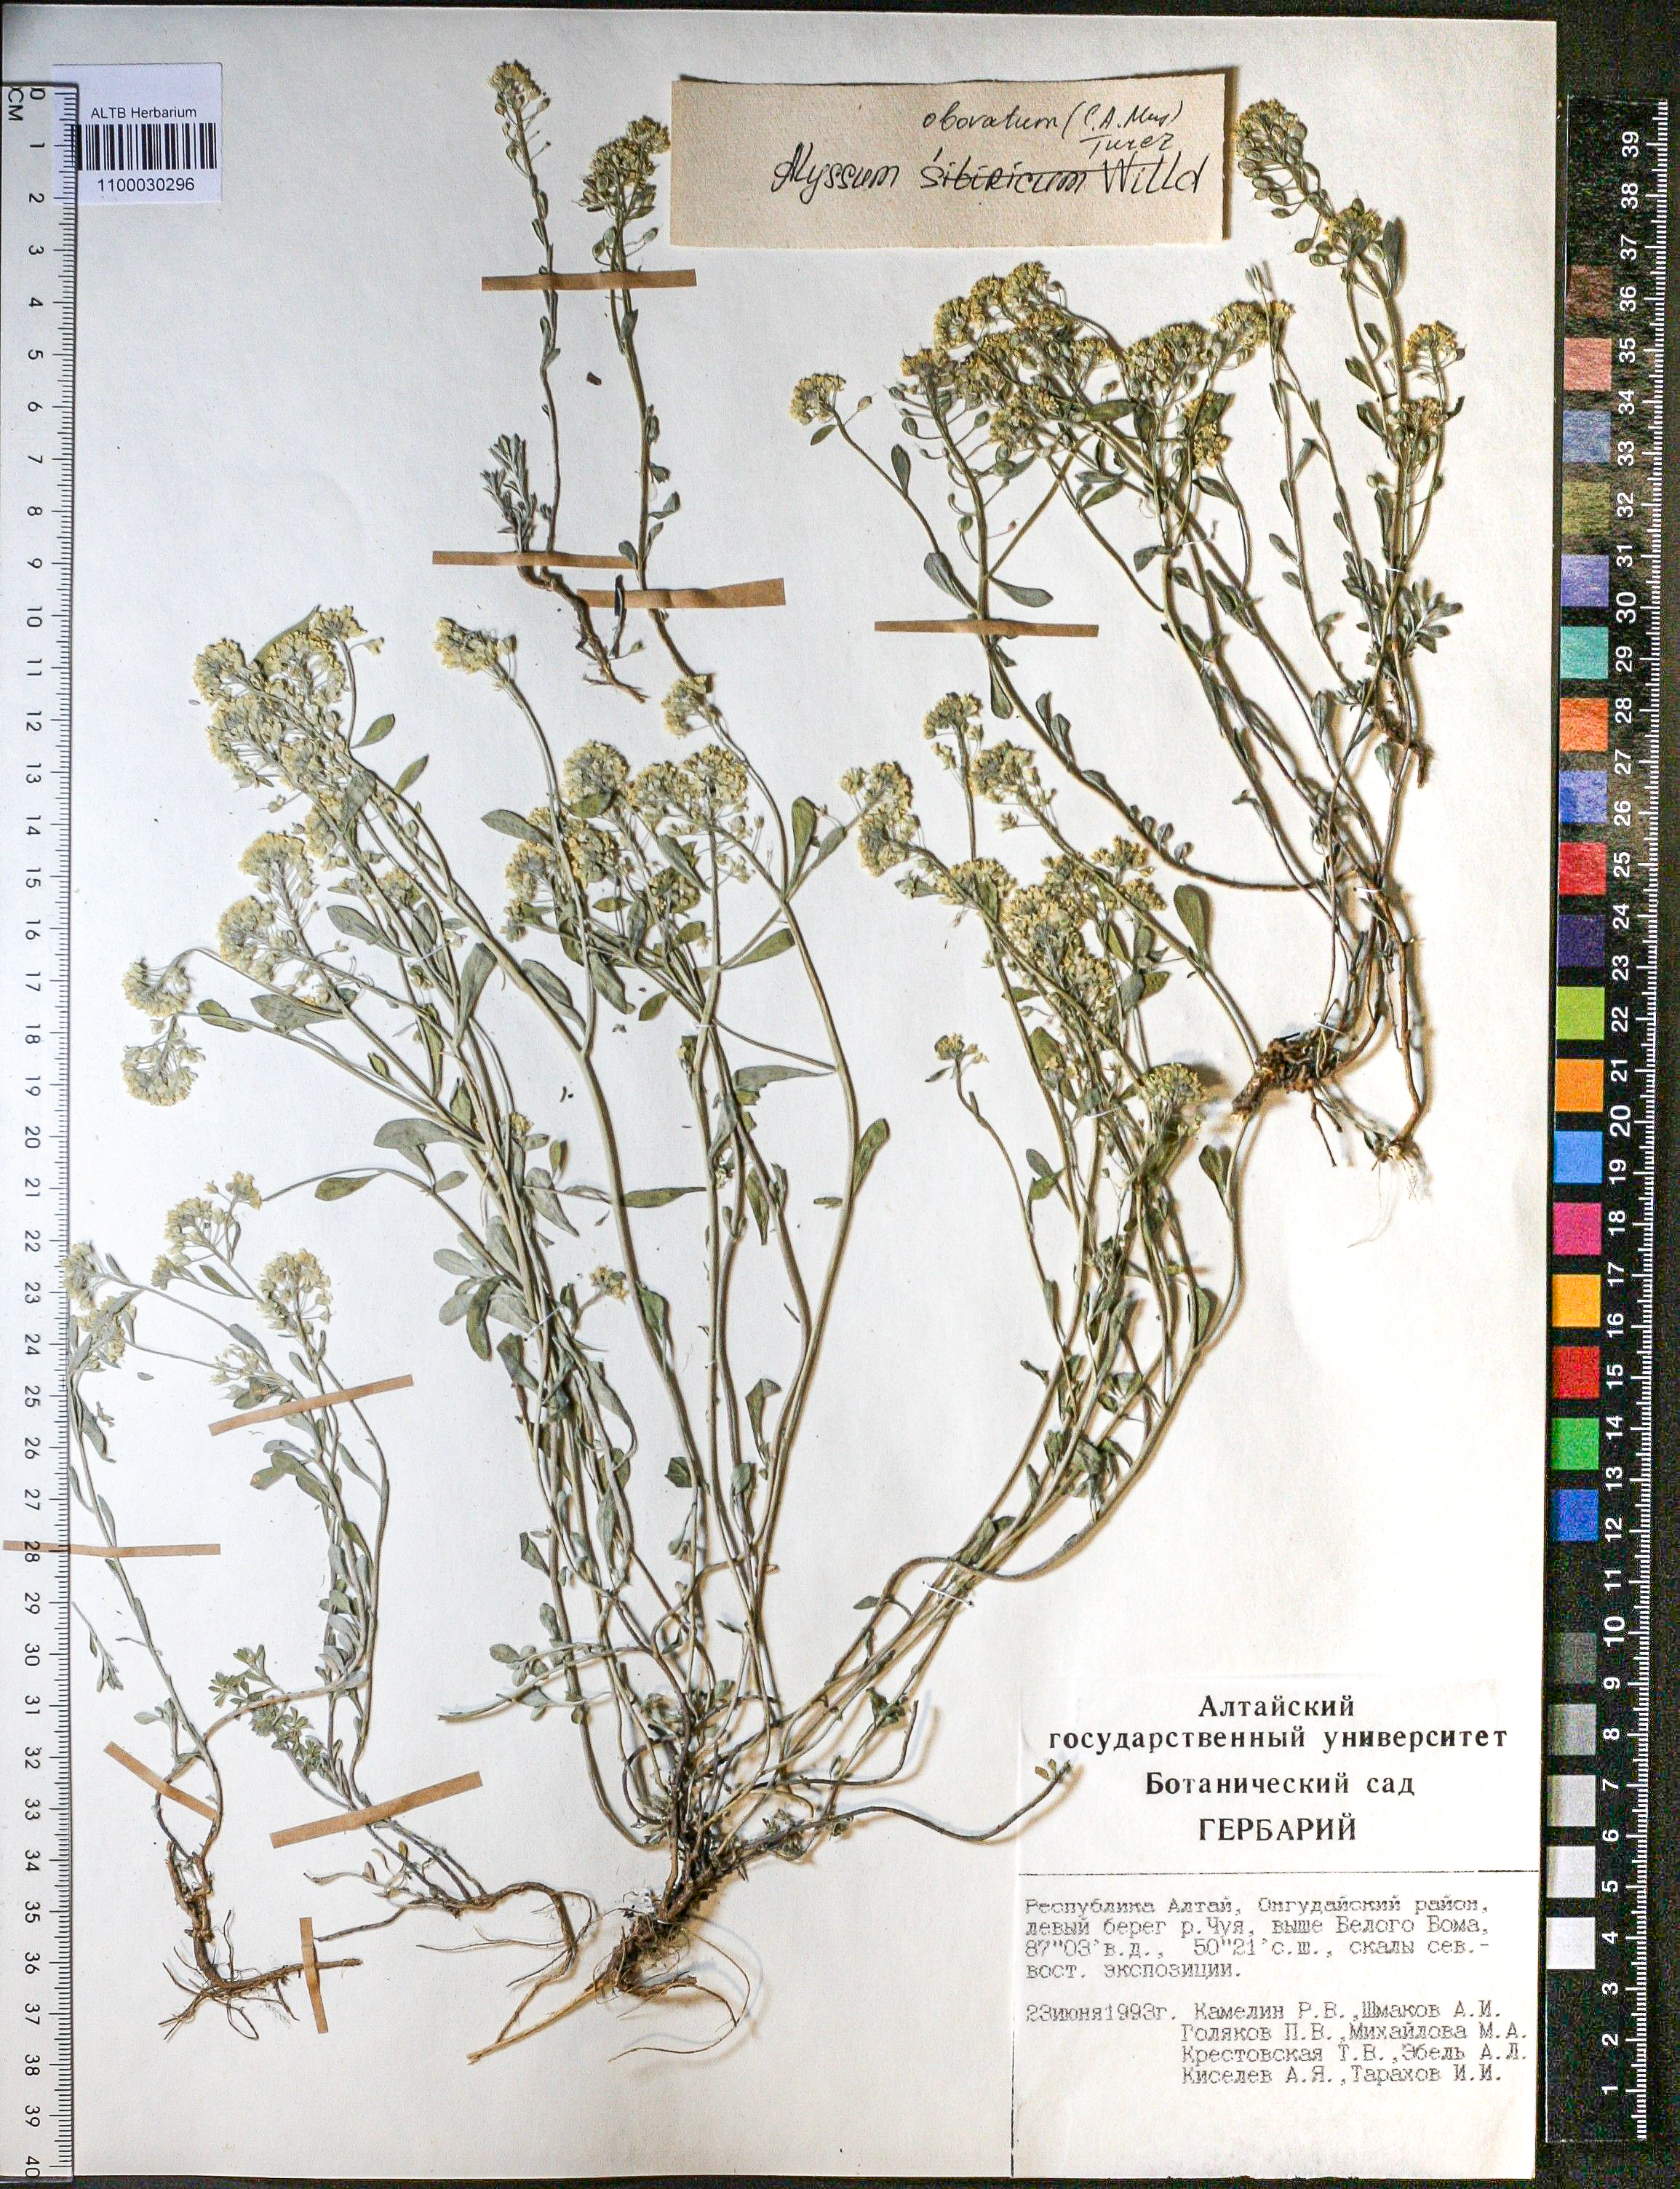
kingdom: Plantae
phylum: Tracheophyta
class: Magnoliopsida
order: Brassicales
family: Brassicaceae
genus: Odontarrhena
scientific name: Odontarrhena obovata
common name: American alyssum
